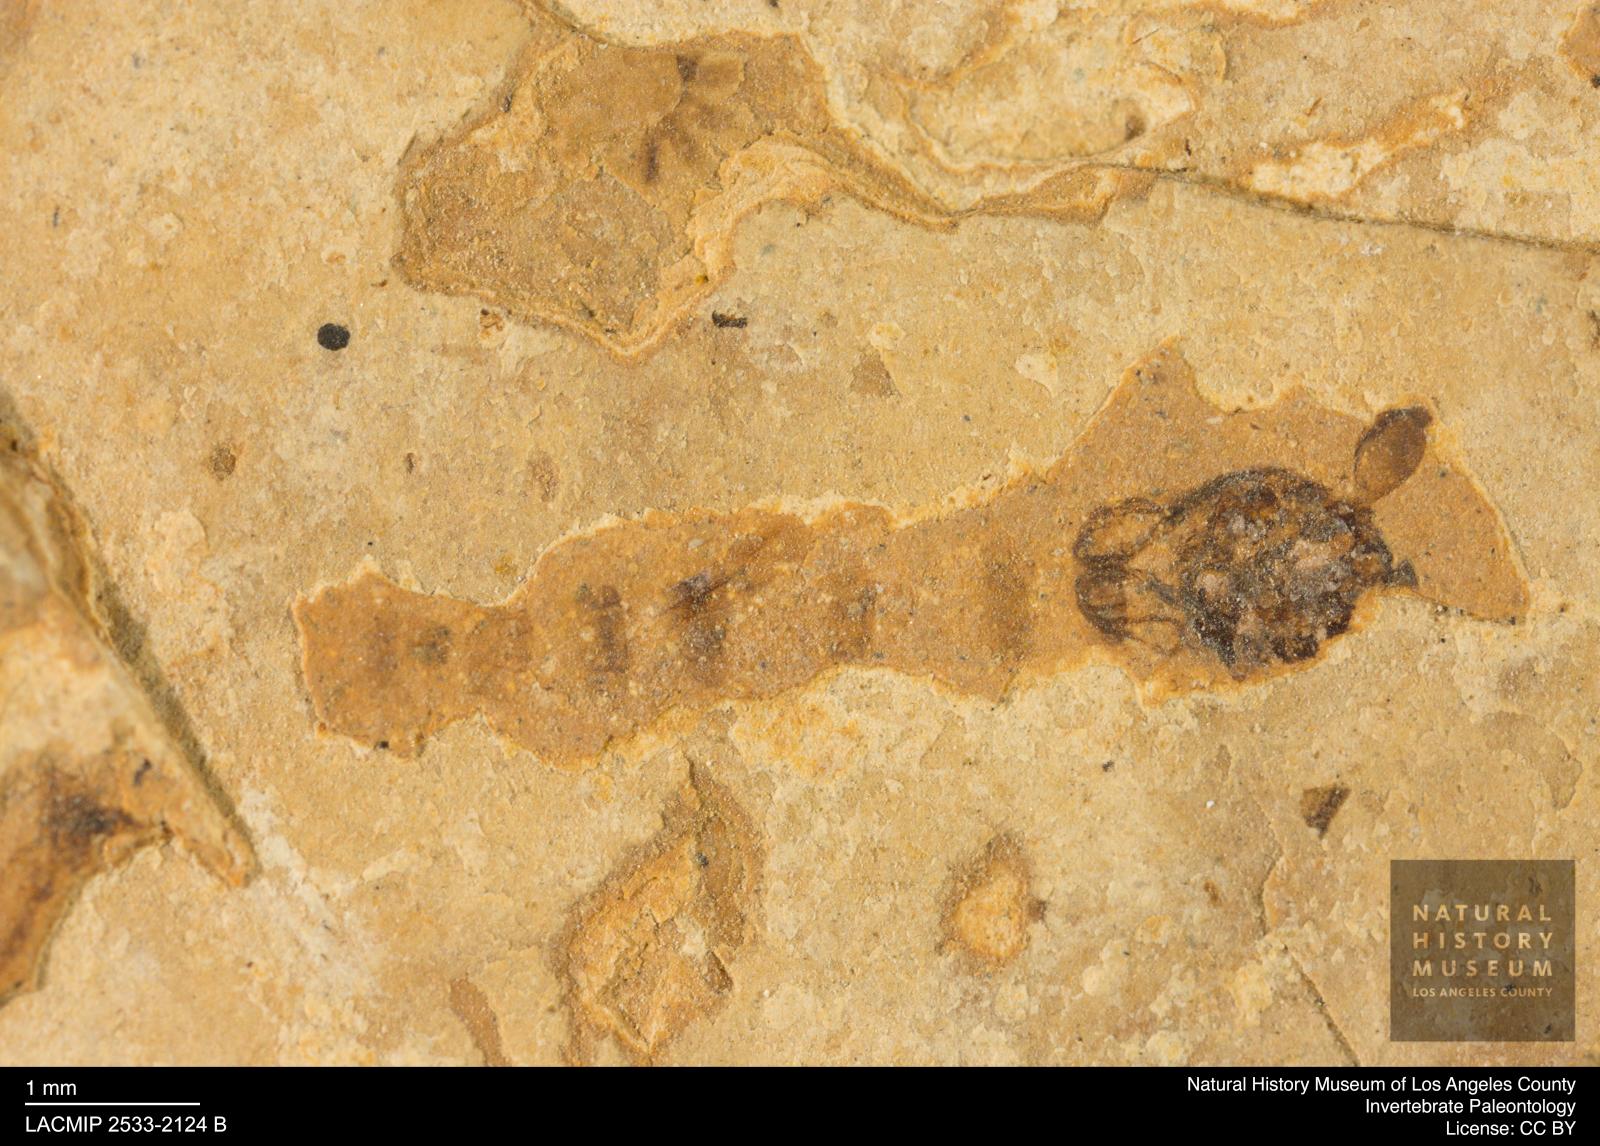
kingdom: Animalia
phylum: Arthropoda
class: Insecta
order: Diptera
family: Chironomidae
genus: Pelopiina
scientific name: Pelopiina
